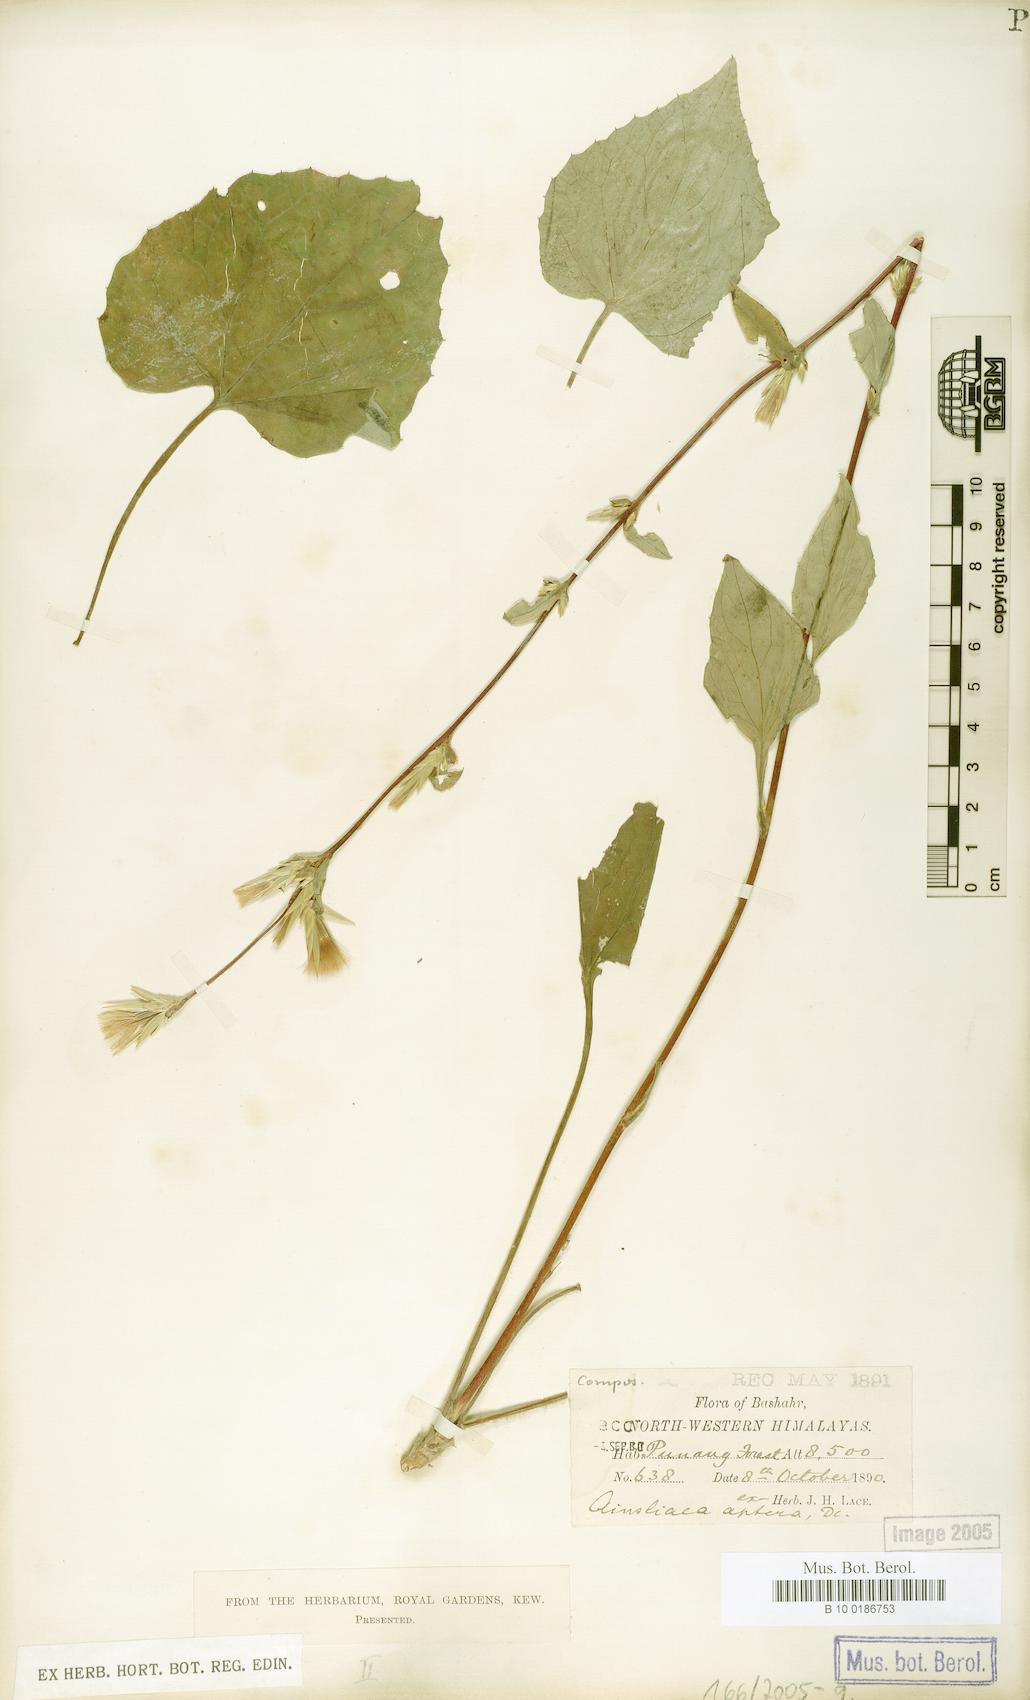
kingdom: Plantae
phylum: Tracheophyta
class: Magnoliopsida
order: Asterales
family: Asteraceae
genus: Ainsliaea
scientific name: Ainsliaea aptera
